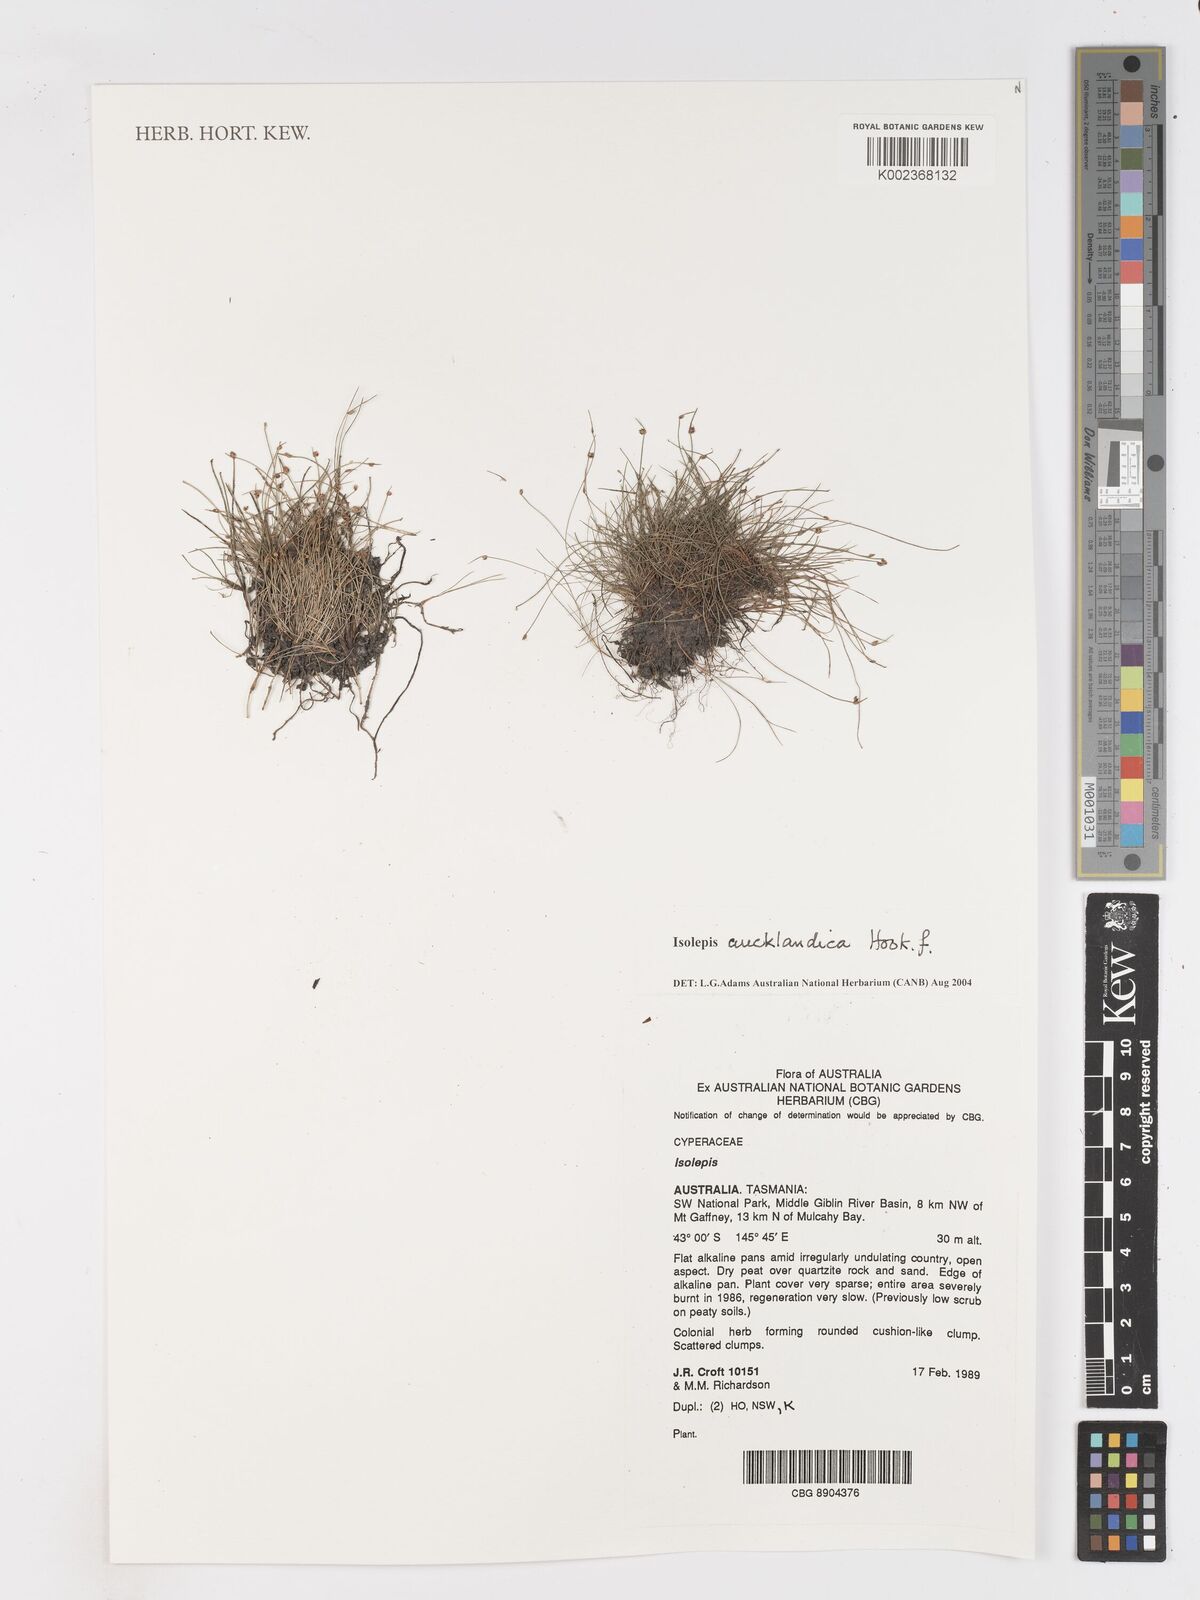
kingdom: Plantae
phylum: Tracheophyta
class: Liliopsida
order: Poales
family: Cyperaceae
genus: Isolepis
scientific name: Isolepis aucklandica
